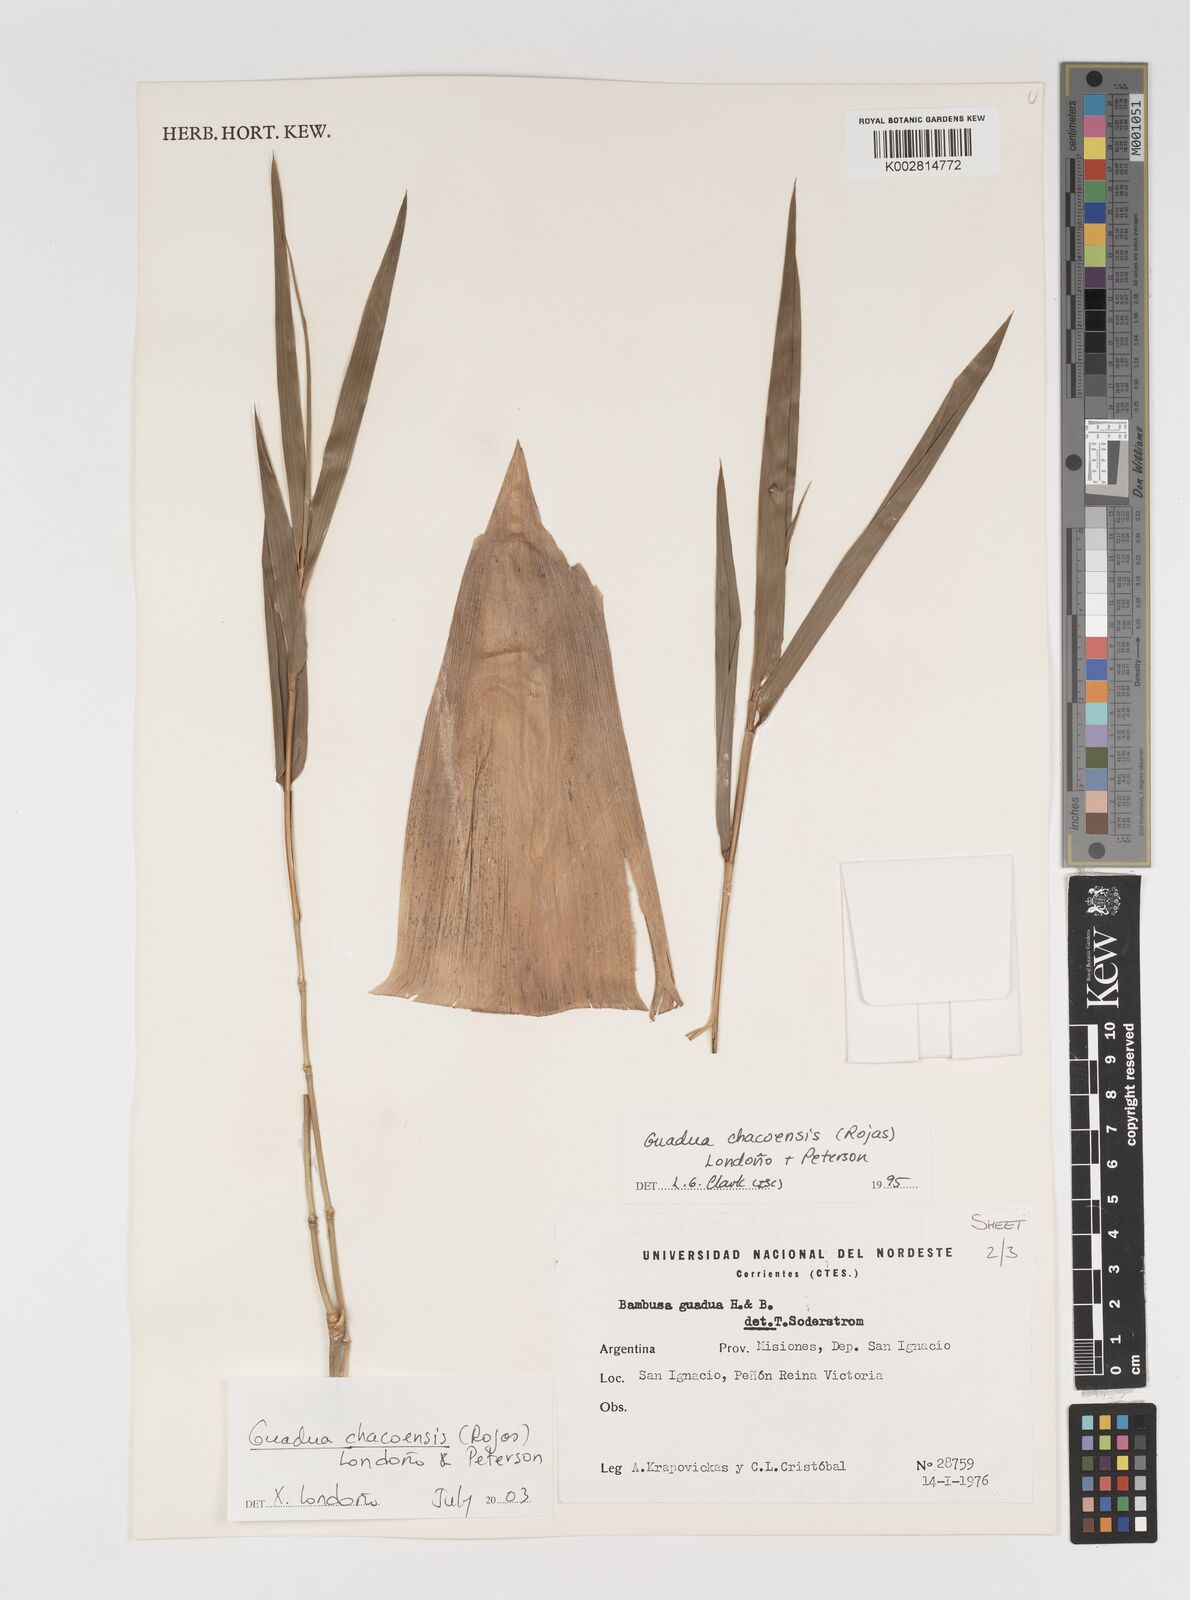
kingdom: Plantae
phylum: Tracheophyta
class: Liliopsida
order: Poales
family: Poaceae
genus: Guadua
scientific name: Guadua chacoensis
